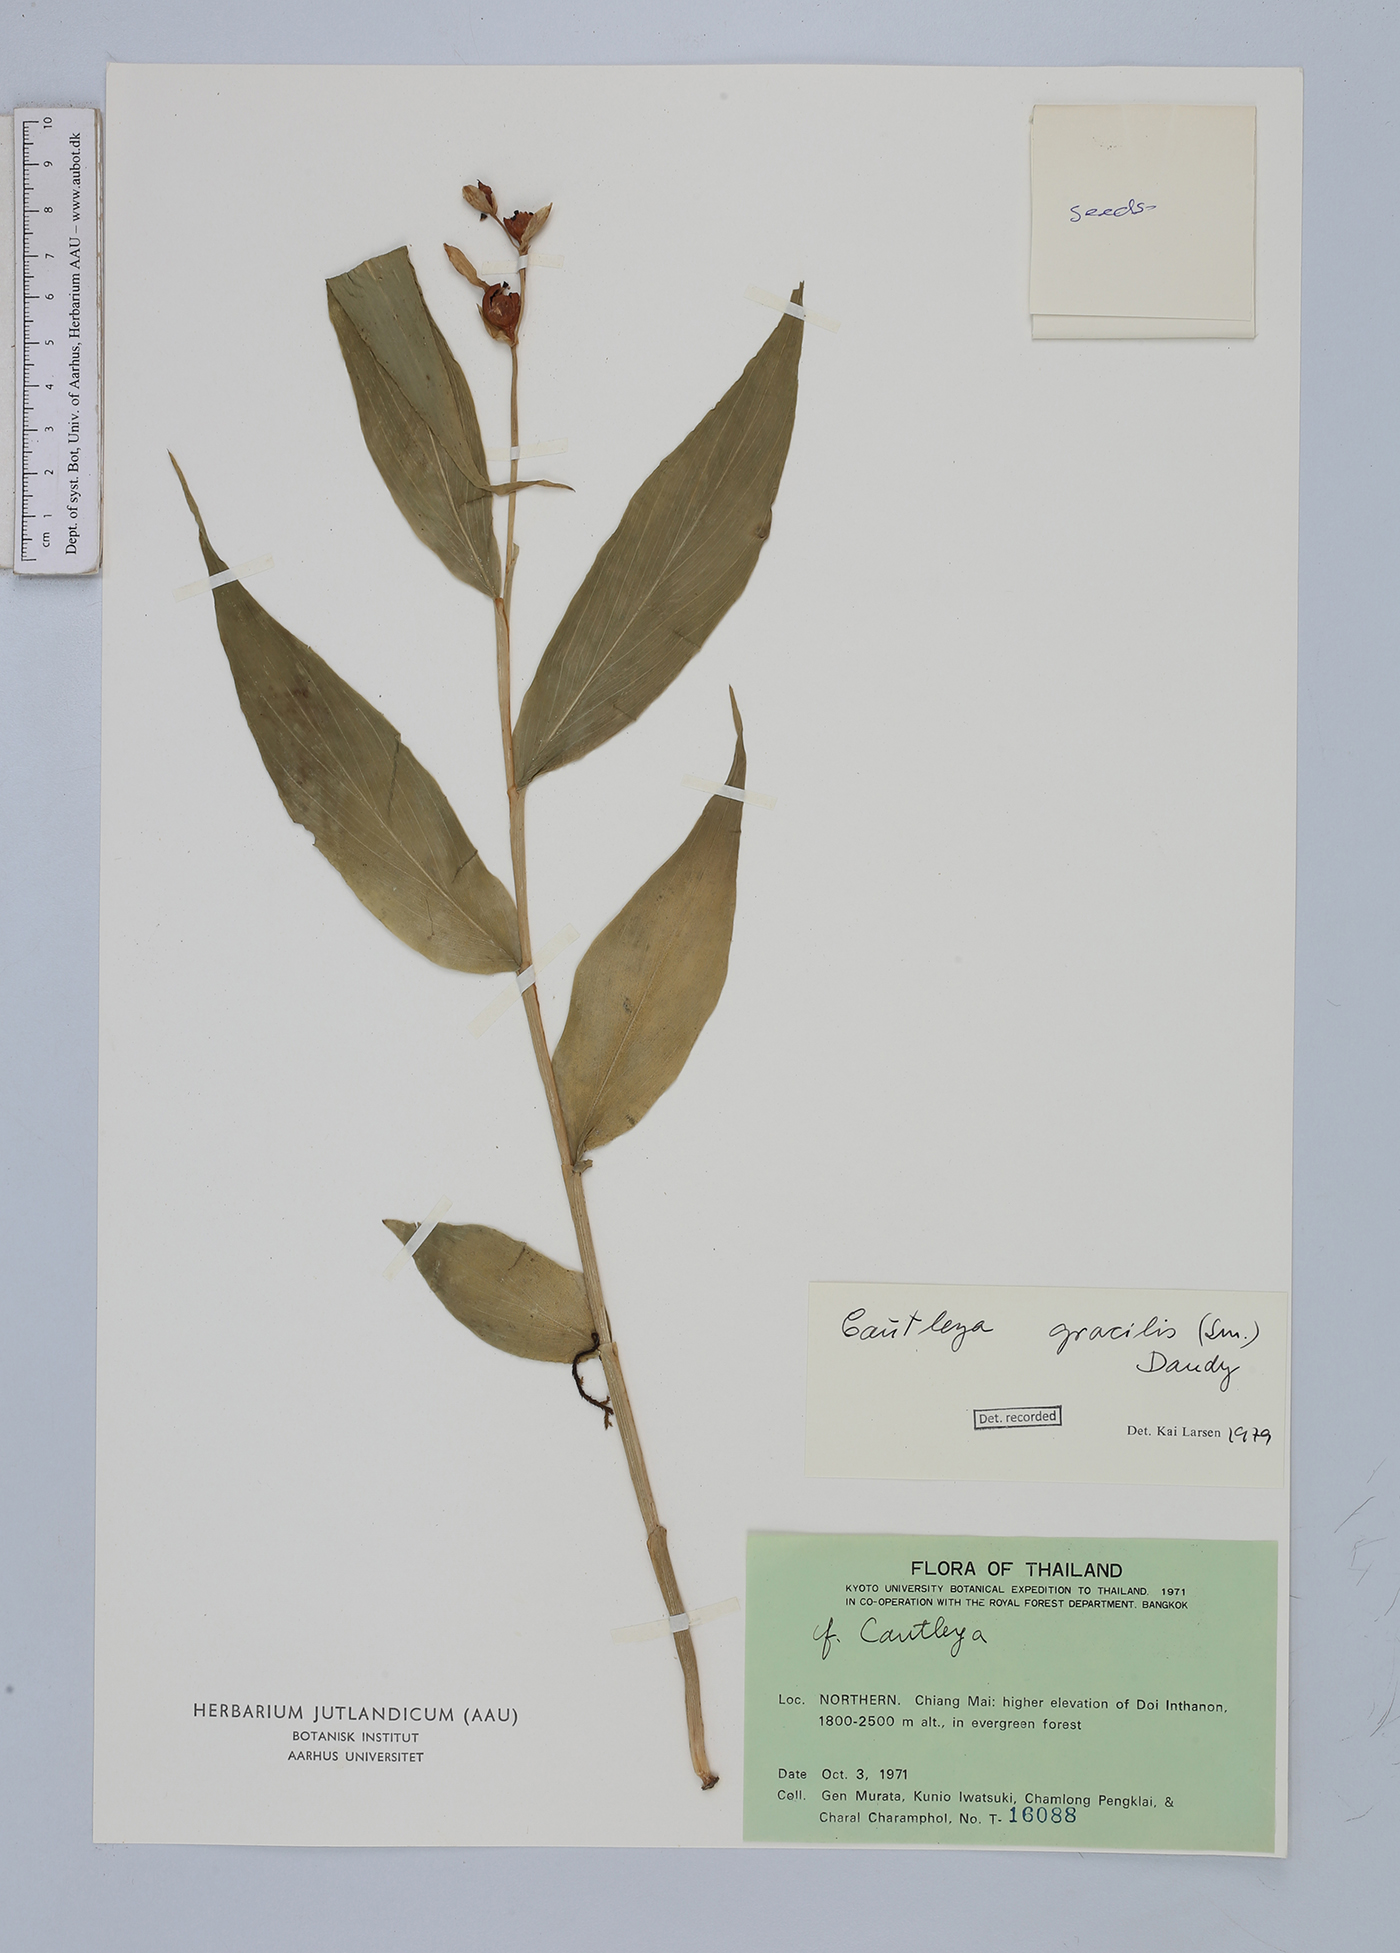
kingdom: Plantae
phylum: Tracheophyta
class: Liliopsida
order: Zingiberales
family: Zingiberaceae
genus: Cautleya
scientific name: Cautleya gracilis
